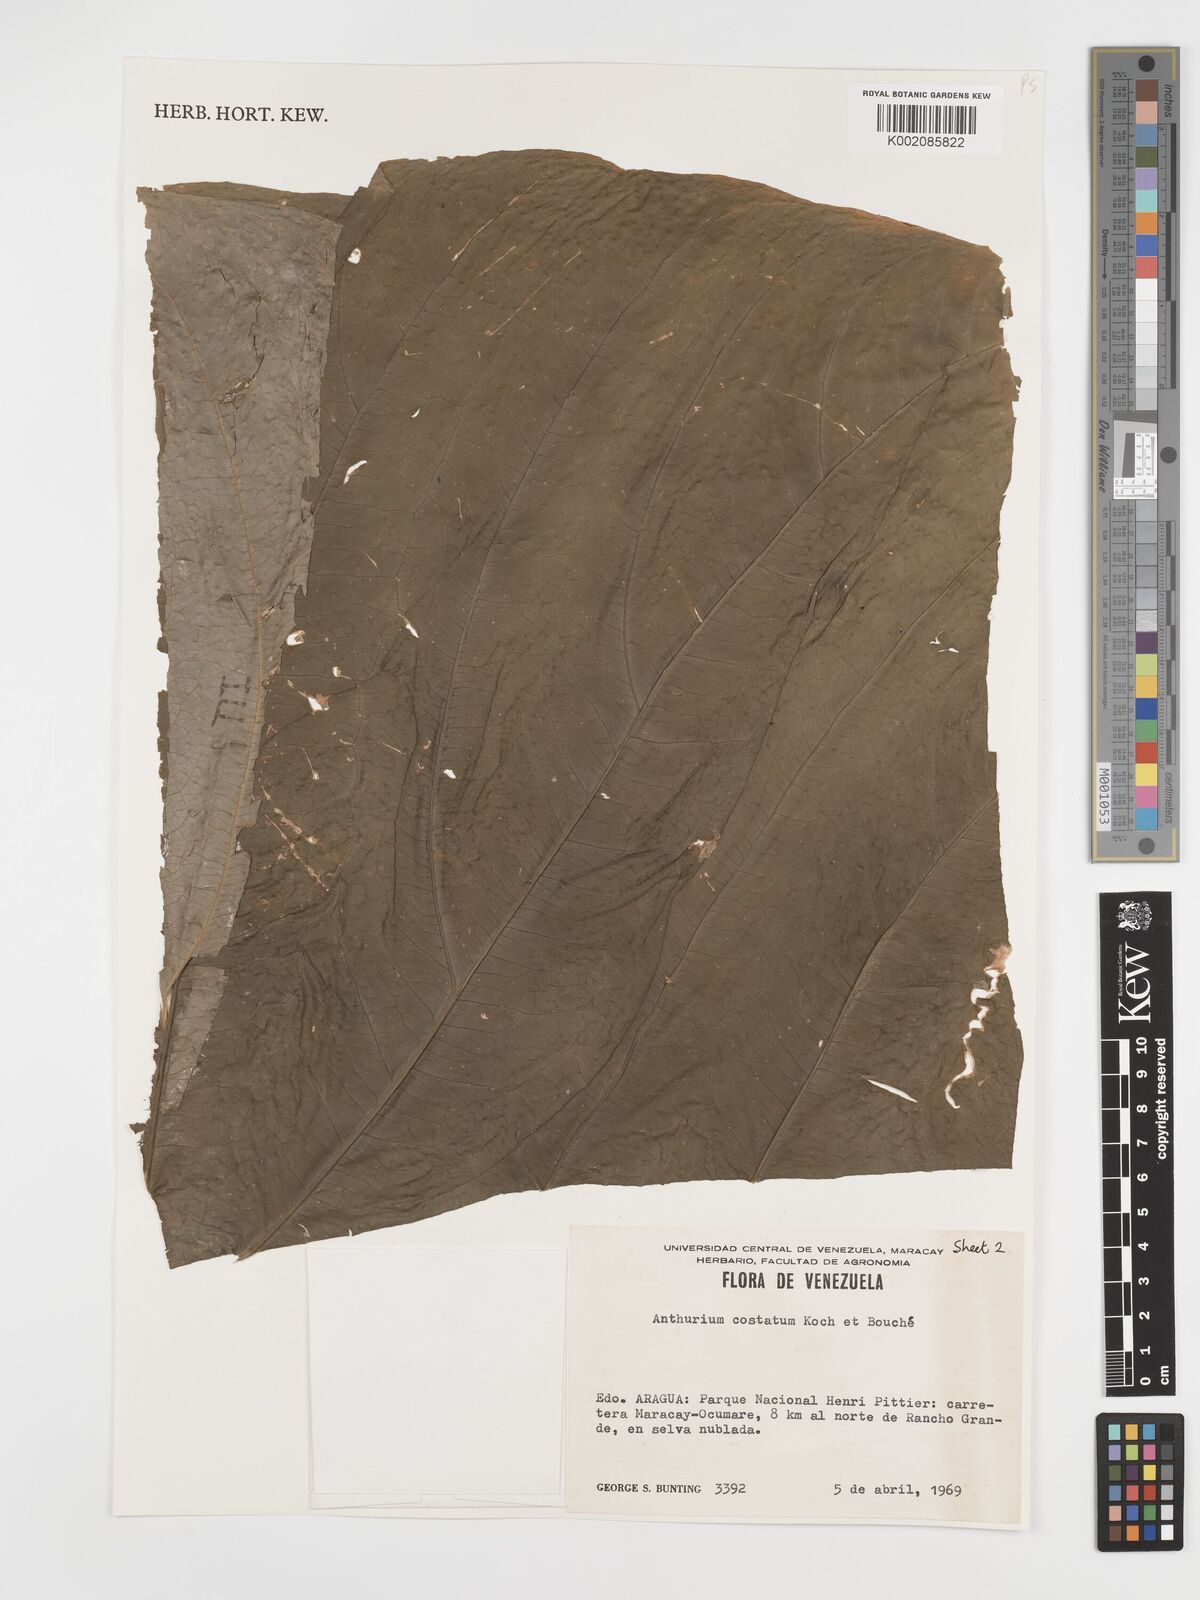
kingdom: Plantae
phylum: Tracheophyta
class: Liliopsida
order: Alismatales
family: Araceae
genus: Anthurium
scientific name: Anthurium macrophyllum
